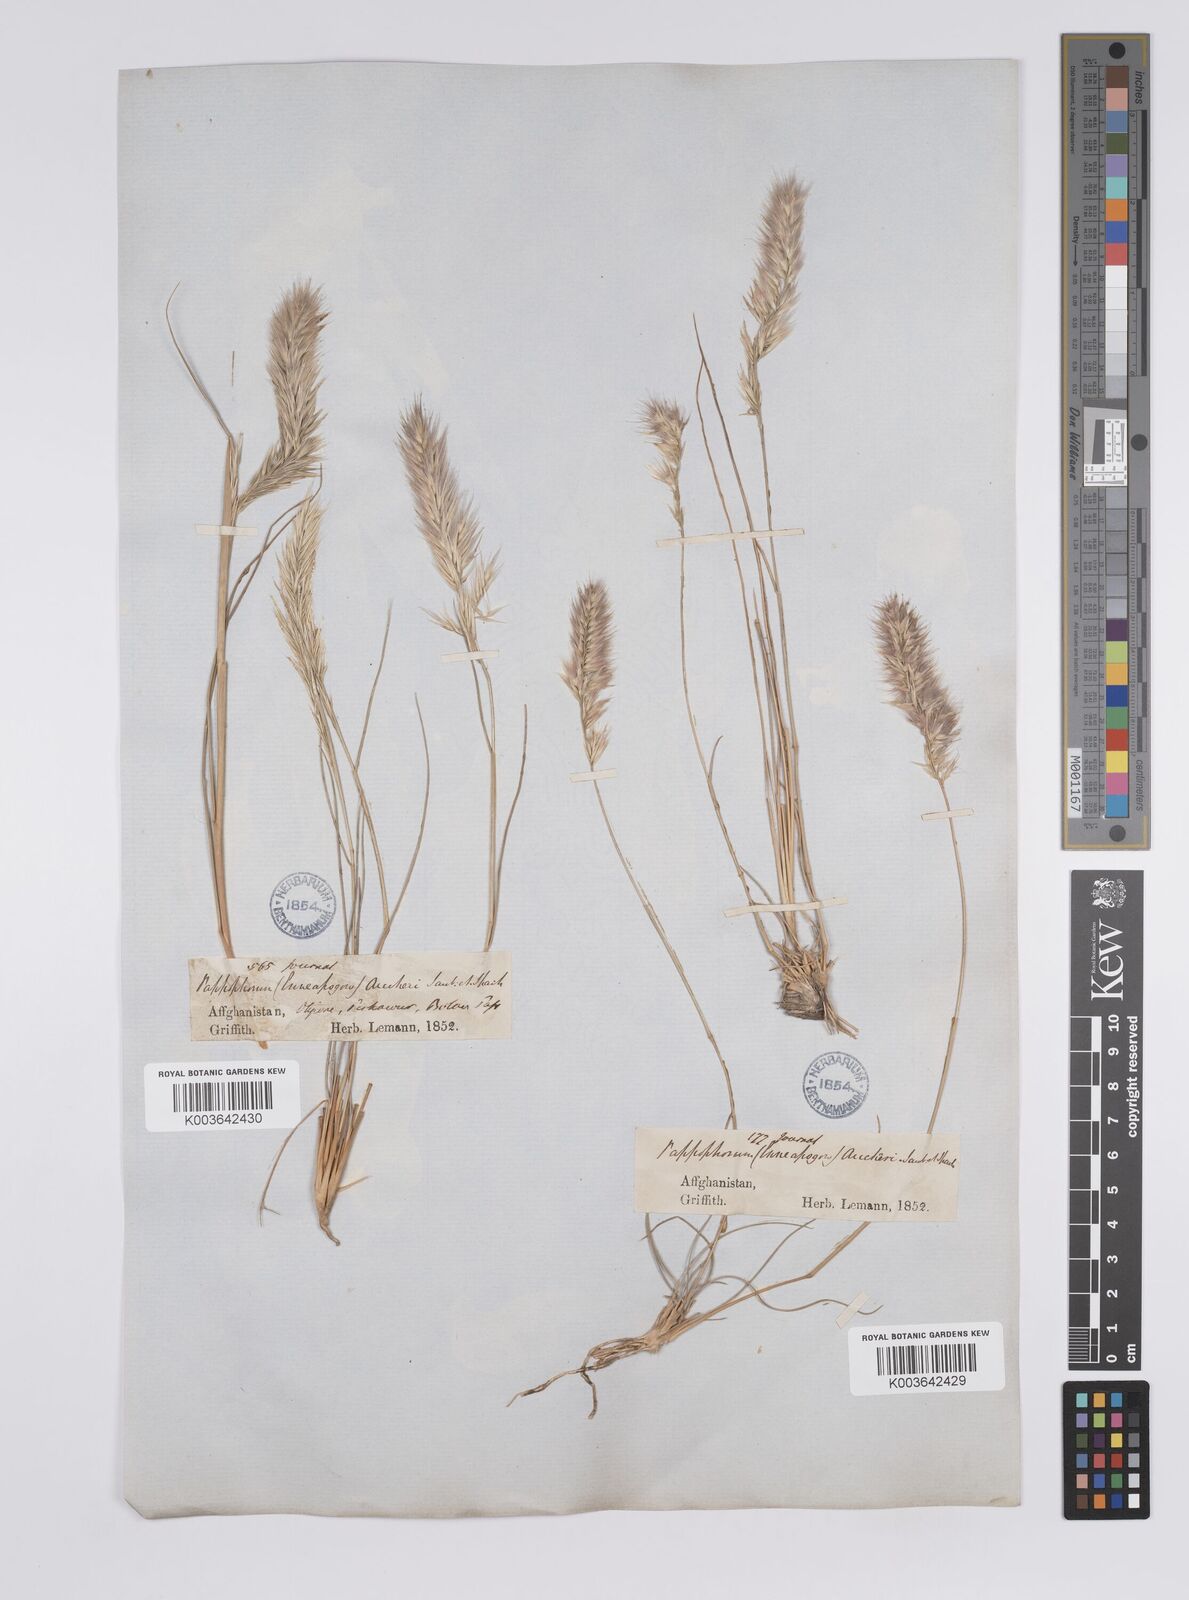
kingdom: Plantae
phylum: Tracheophyta
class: Liliopsida
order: Poales
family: Poaceae
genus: Enneapogon
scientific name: Enneapogon persicus
